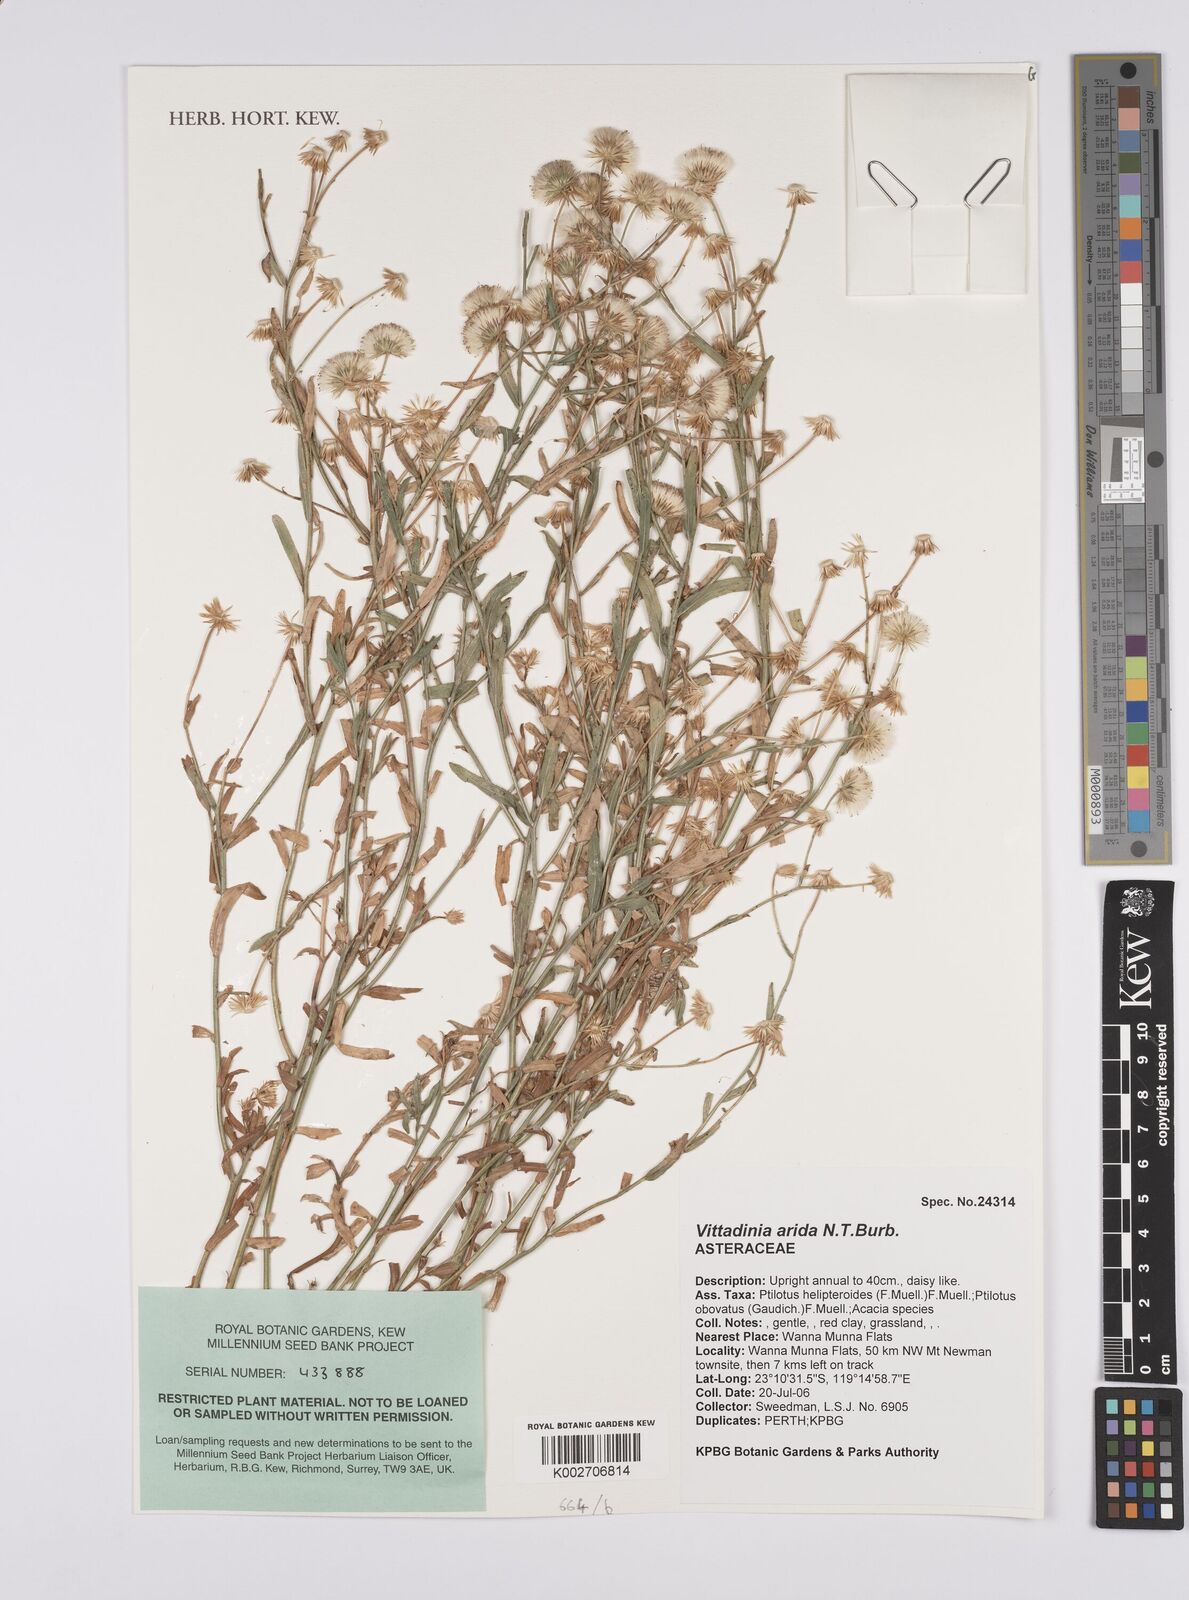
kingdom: Plantae
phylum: Tracheophyta
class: Magnoliopsida
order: Asterales
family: Asteraceae
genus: Peripleura
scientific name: Peripleura arida
